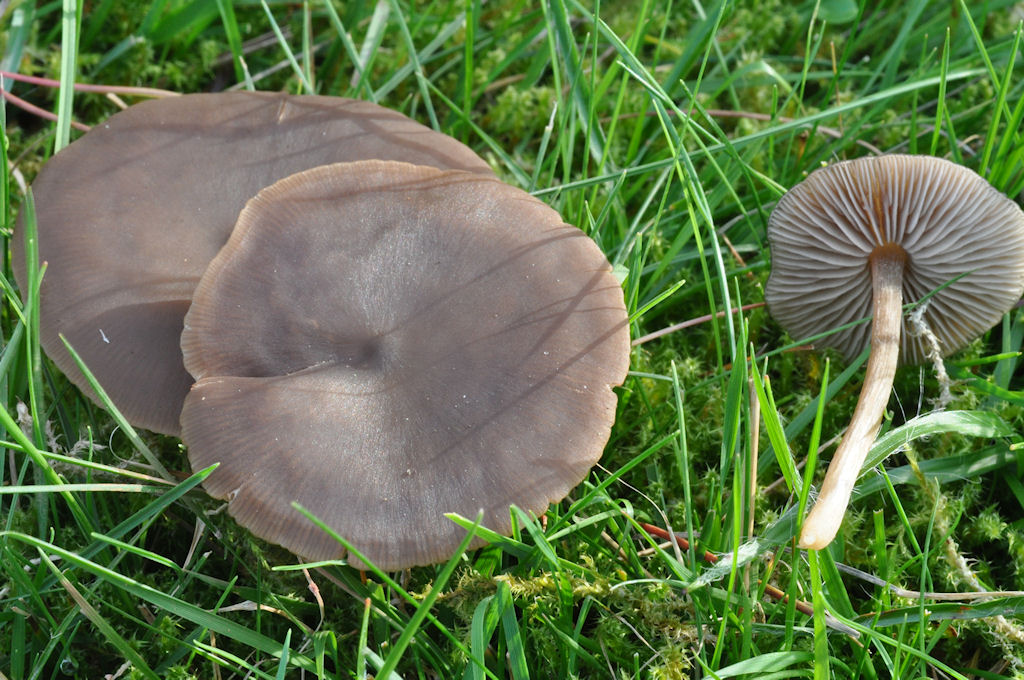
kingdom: Fungi
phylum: Basidiomycota
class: Agaricomycetes
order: Agaricales
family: Entolomataceae
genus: Entoloma
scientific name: Entoloma sericeum
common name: silkeglinsende rødblad
